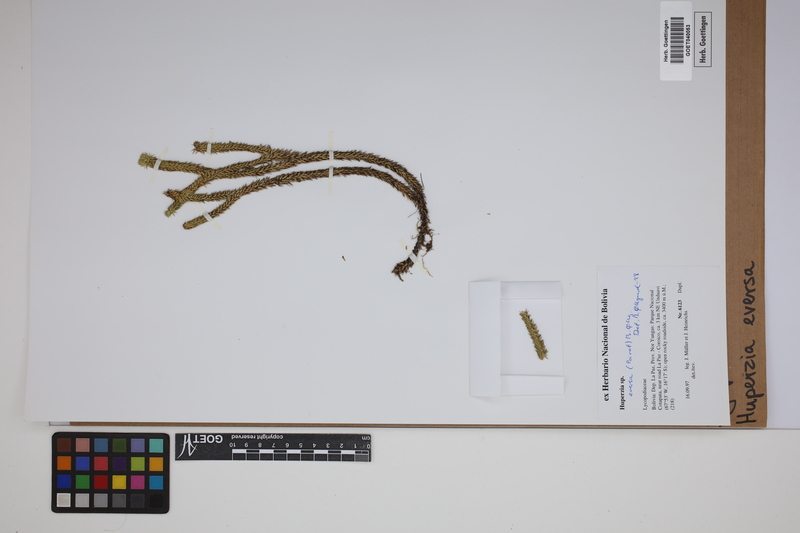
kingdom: Plantae
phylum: Tracheophyta
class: Lycopodiopsida
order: Lycopodiales
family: Lycopodiaceae
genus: Phlegmariurus
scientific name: Phlegmariurus eversus
